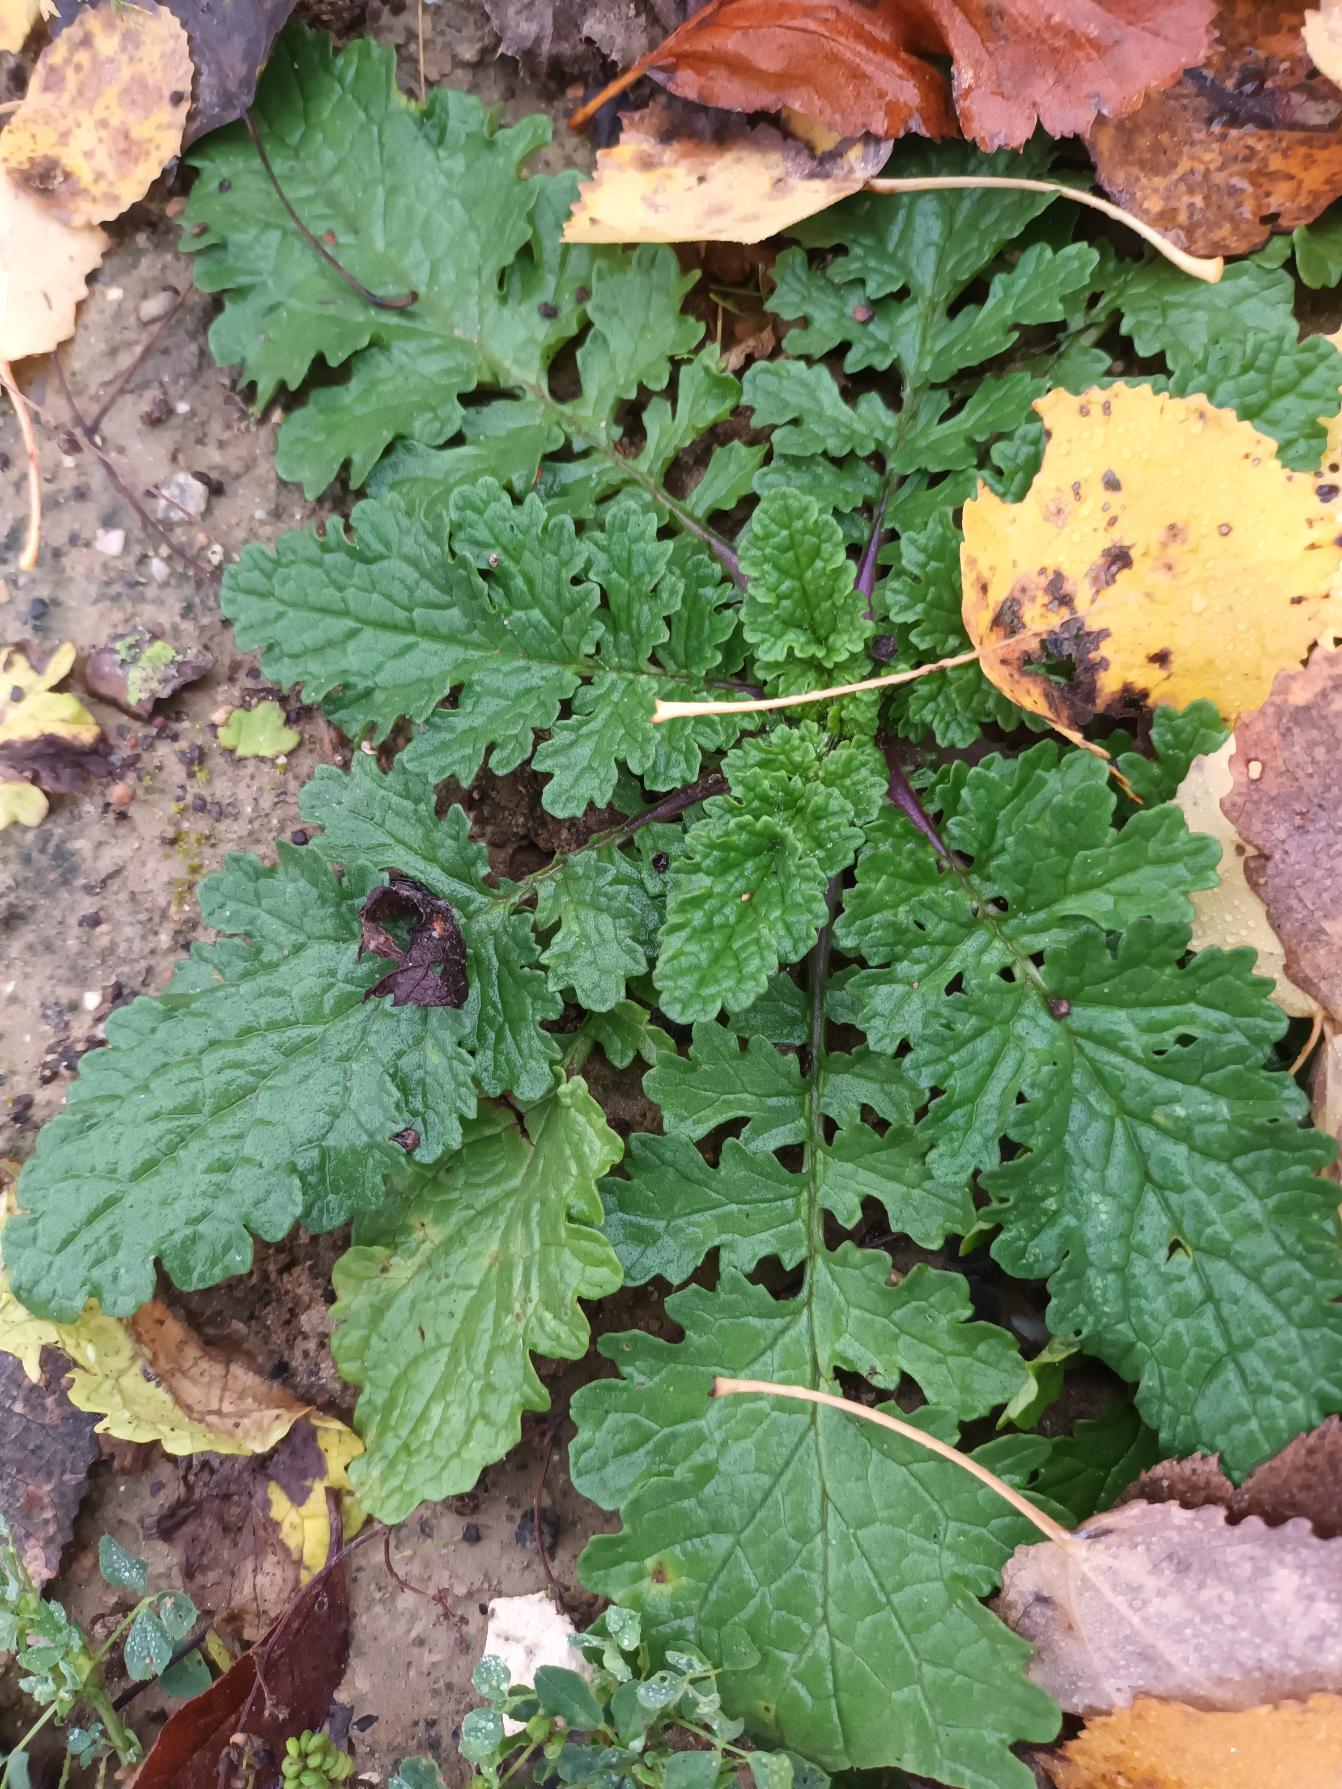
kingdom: Plantae
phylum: Tracheophyta
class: Magnoliopsida
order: Asterales
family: Asteraceae
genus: Jacobaea
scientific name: Jacobaea vulgaris
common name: Eng-brandbæger
